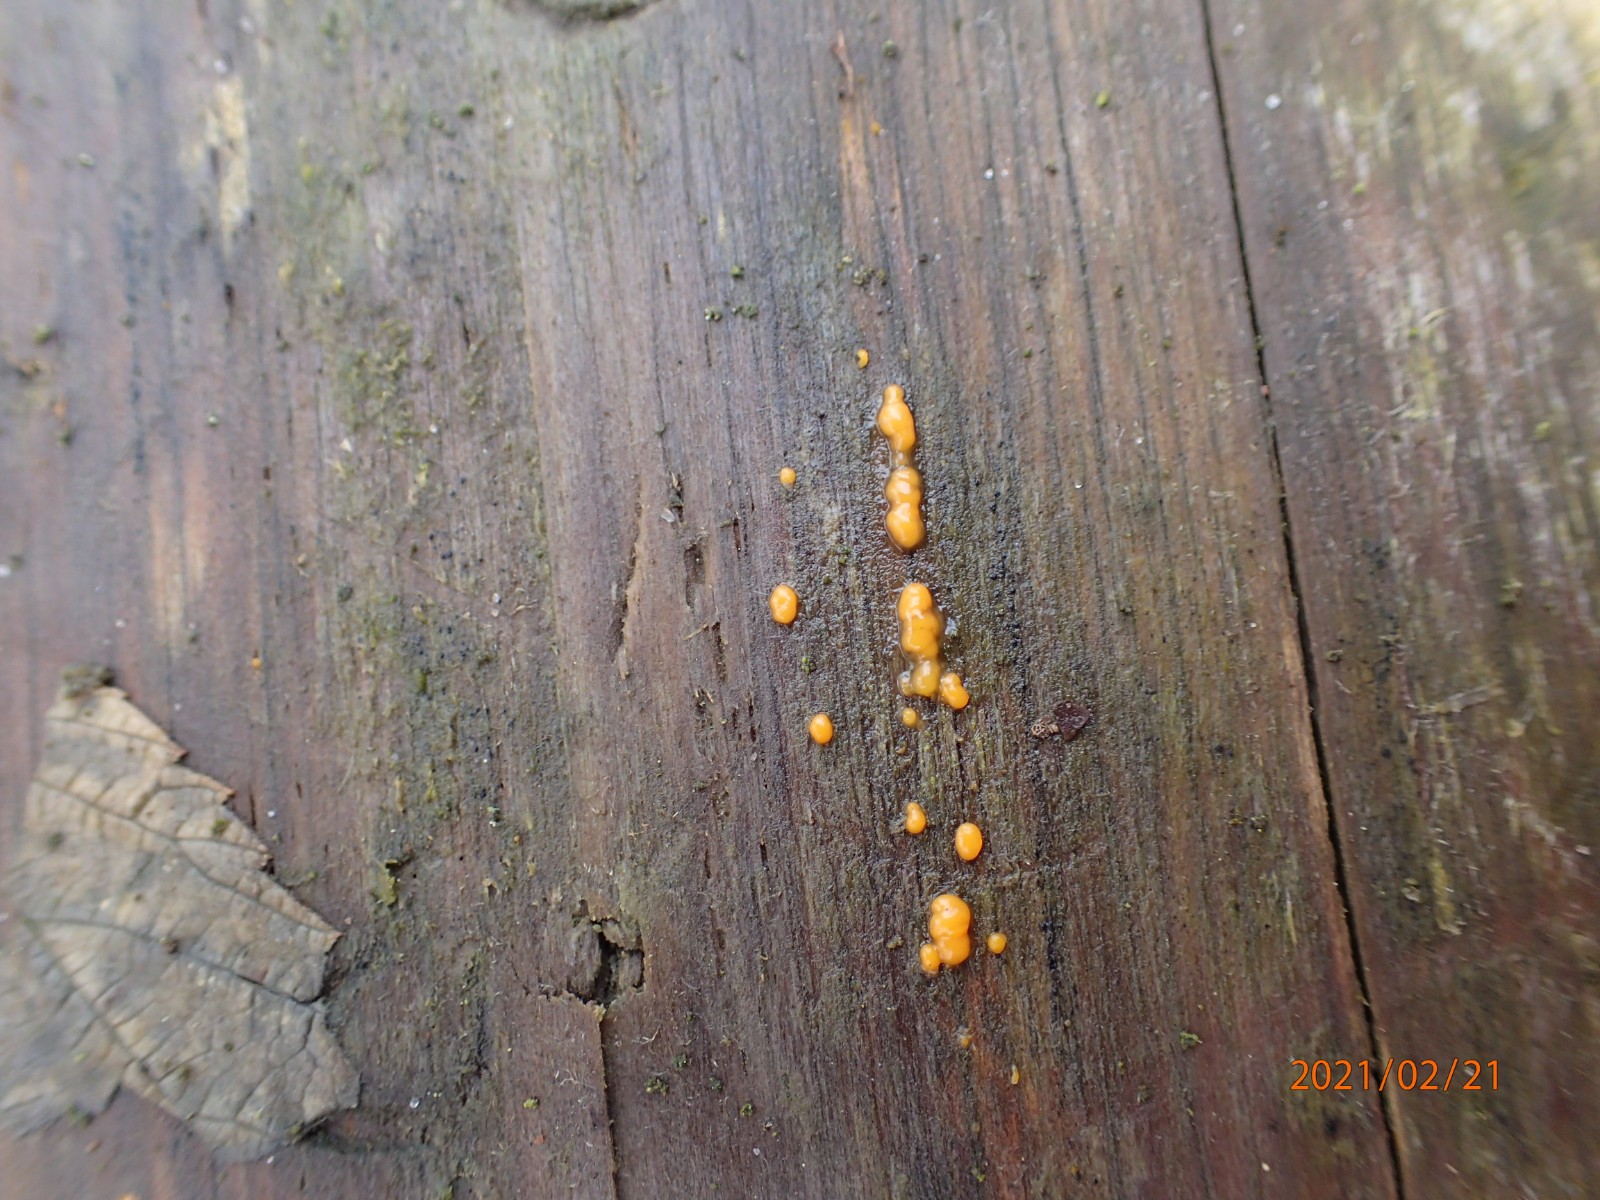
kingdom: Fungi
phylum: Basidiomycota
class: Dacrymycetes
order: Dacrymycetales
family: Dacrymycetaceae
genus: Dacrymyces
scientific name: Dacrymyces stillatus
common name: almindelig tåresvamp
